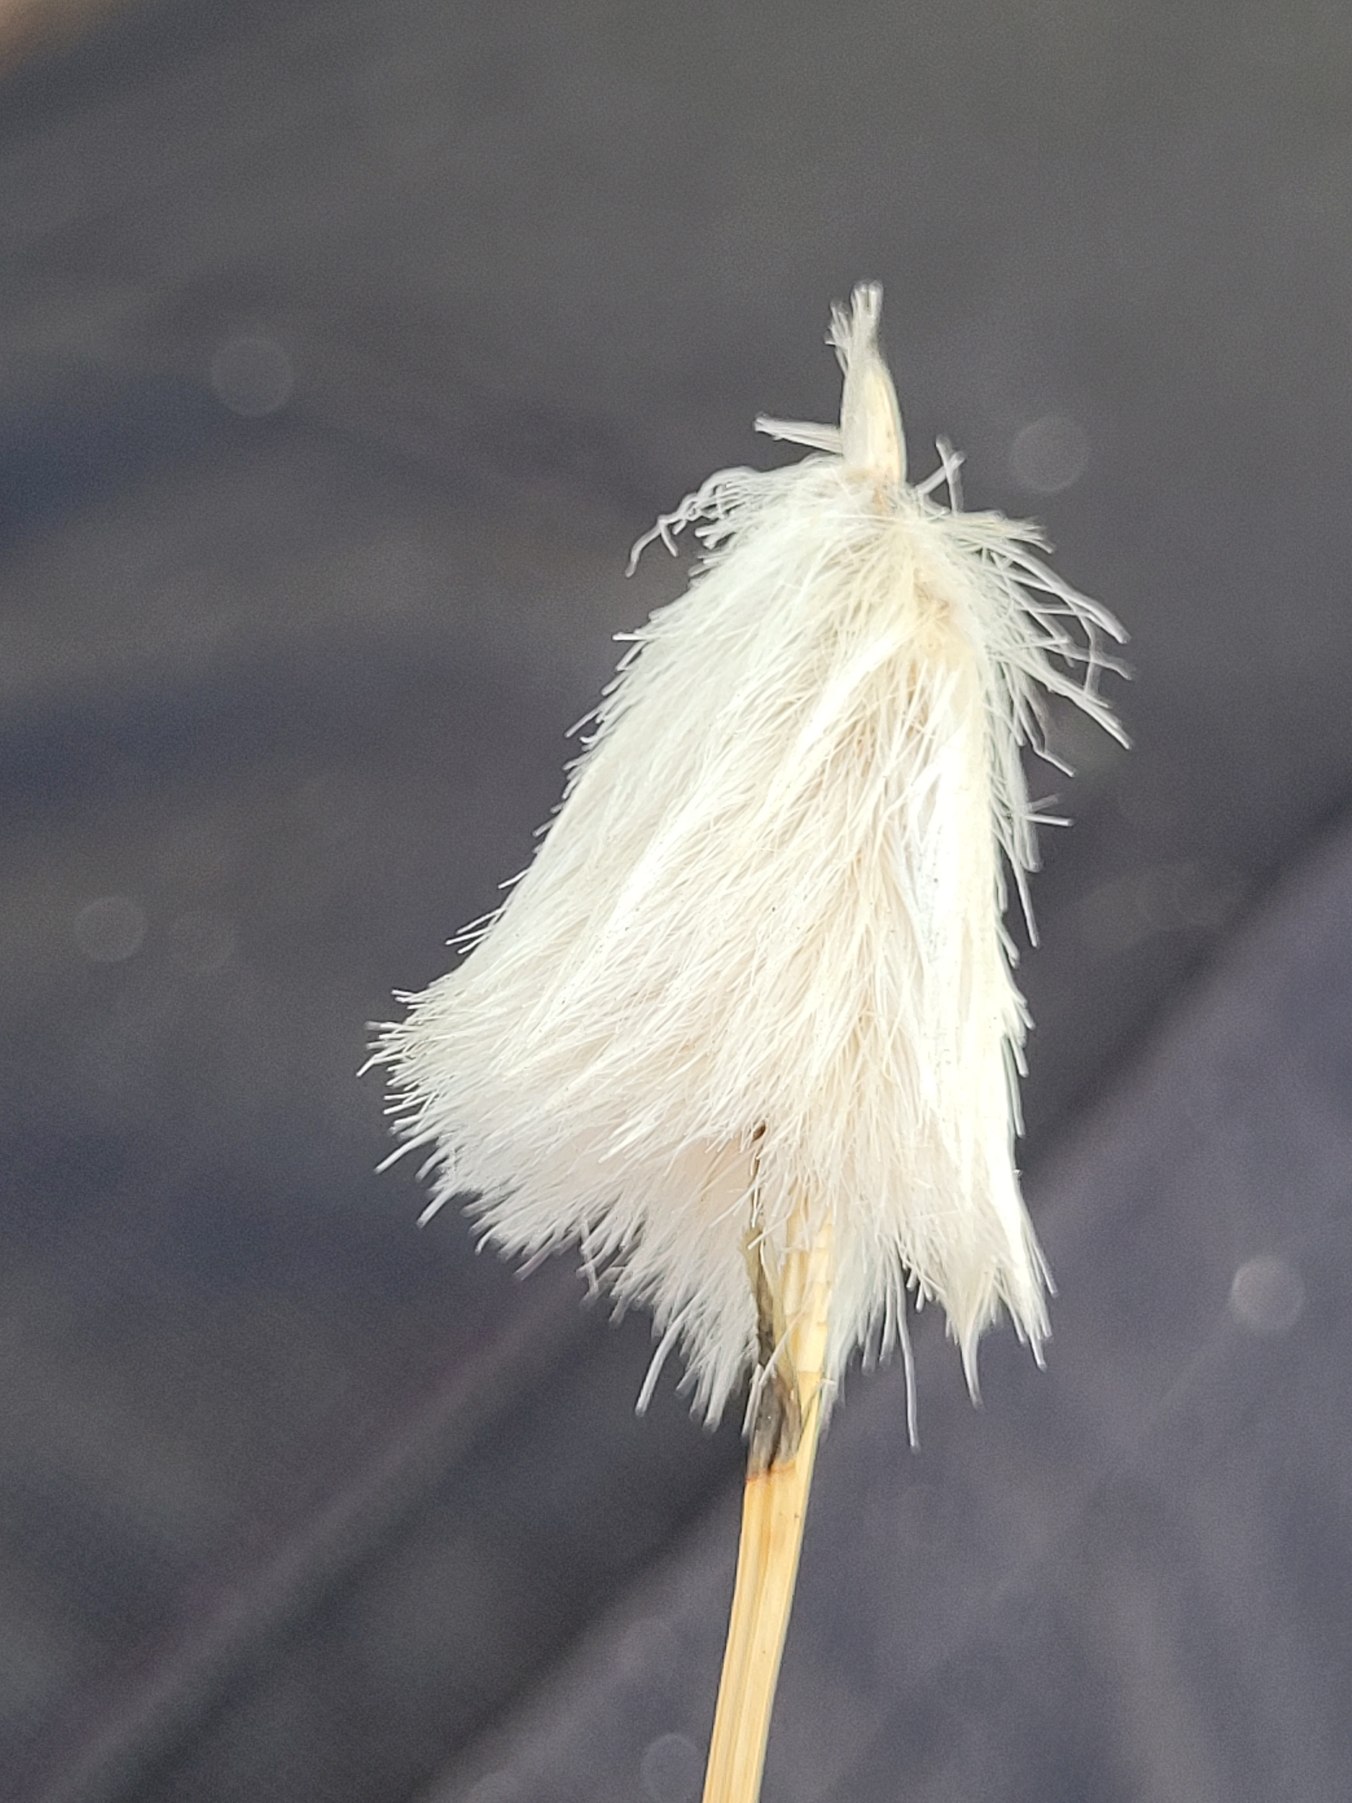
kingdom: Plantae
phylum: Tracheophyta
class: Liliopsida
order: Poales
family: Cyperaceae
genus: Eriophorum
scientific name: Eriophorum vaginatum
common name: Tue-kæruld
